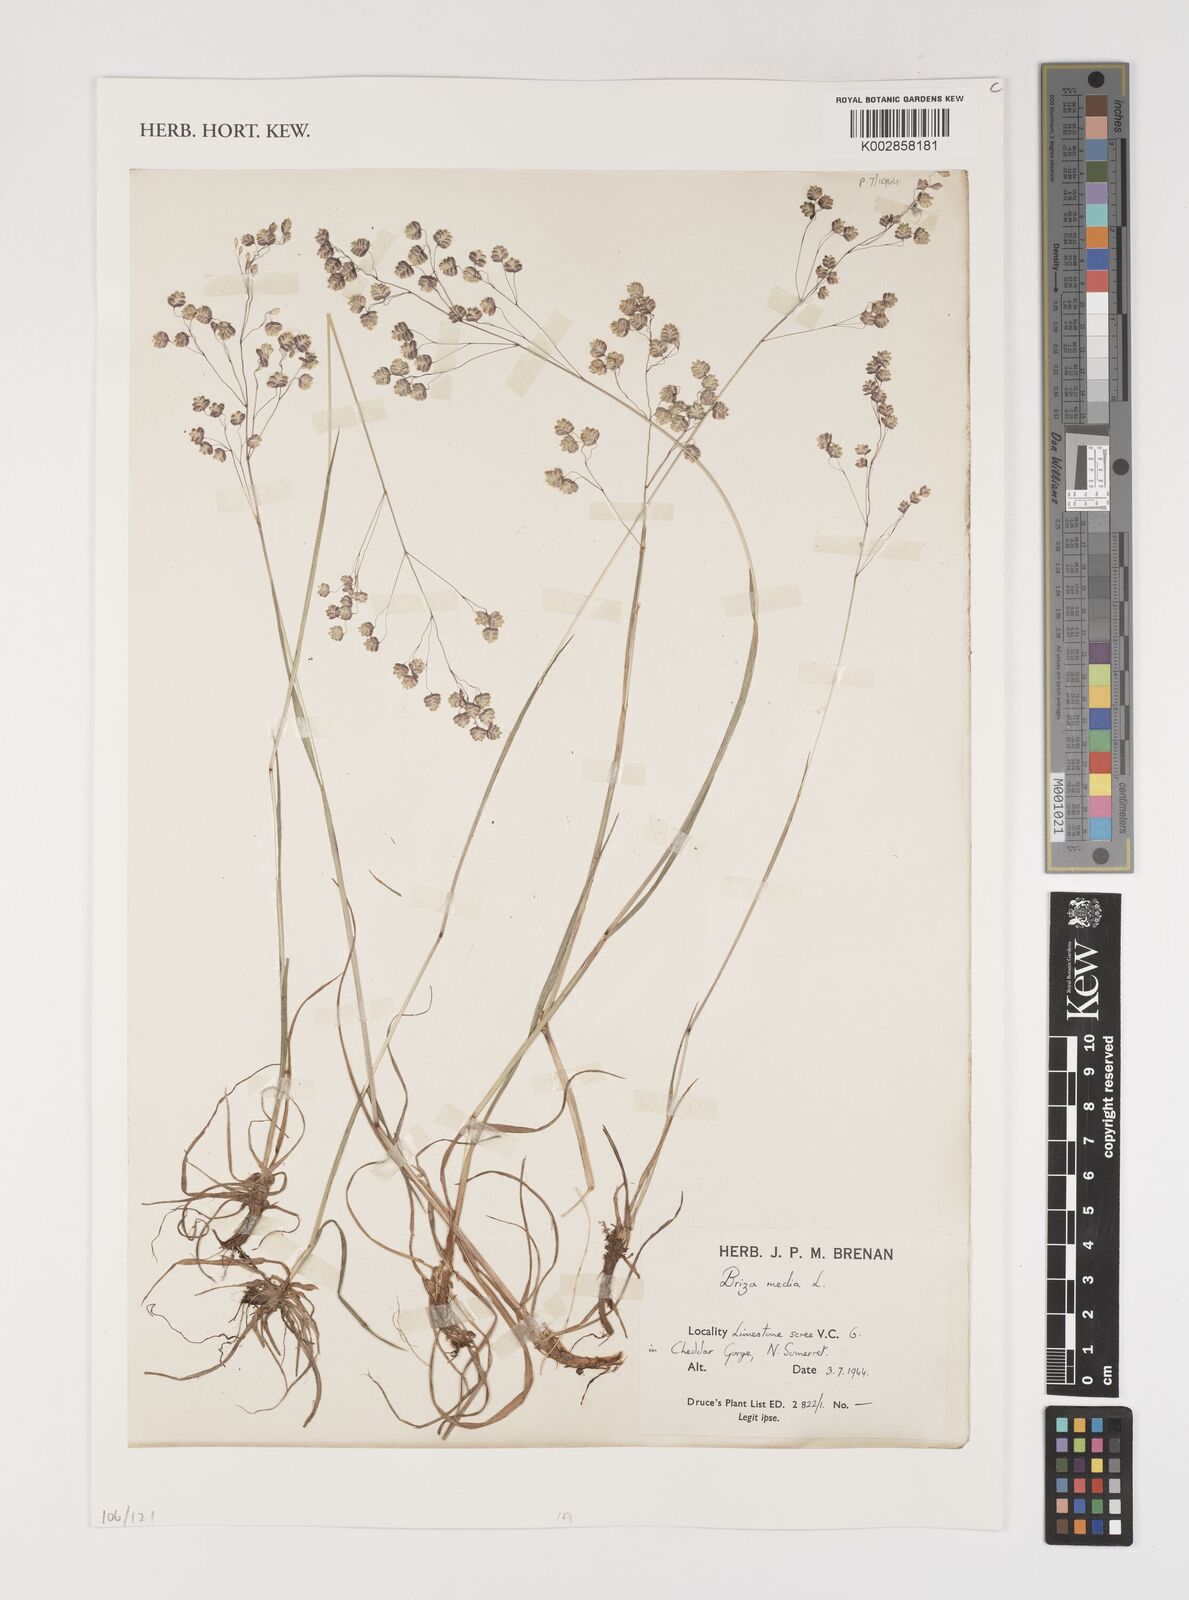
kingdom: Plantae
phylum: Tracheophyta
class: Liliopsida
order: Poales
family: Poaceae
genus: Briza
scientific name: Briza media
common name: Quaking grass
